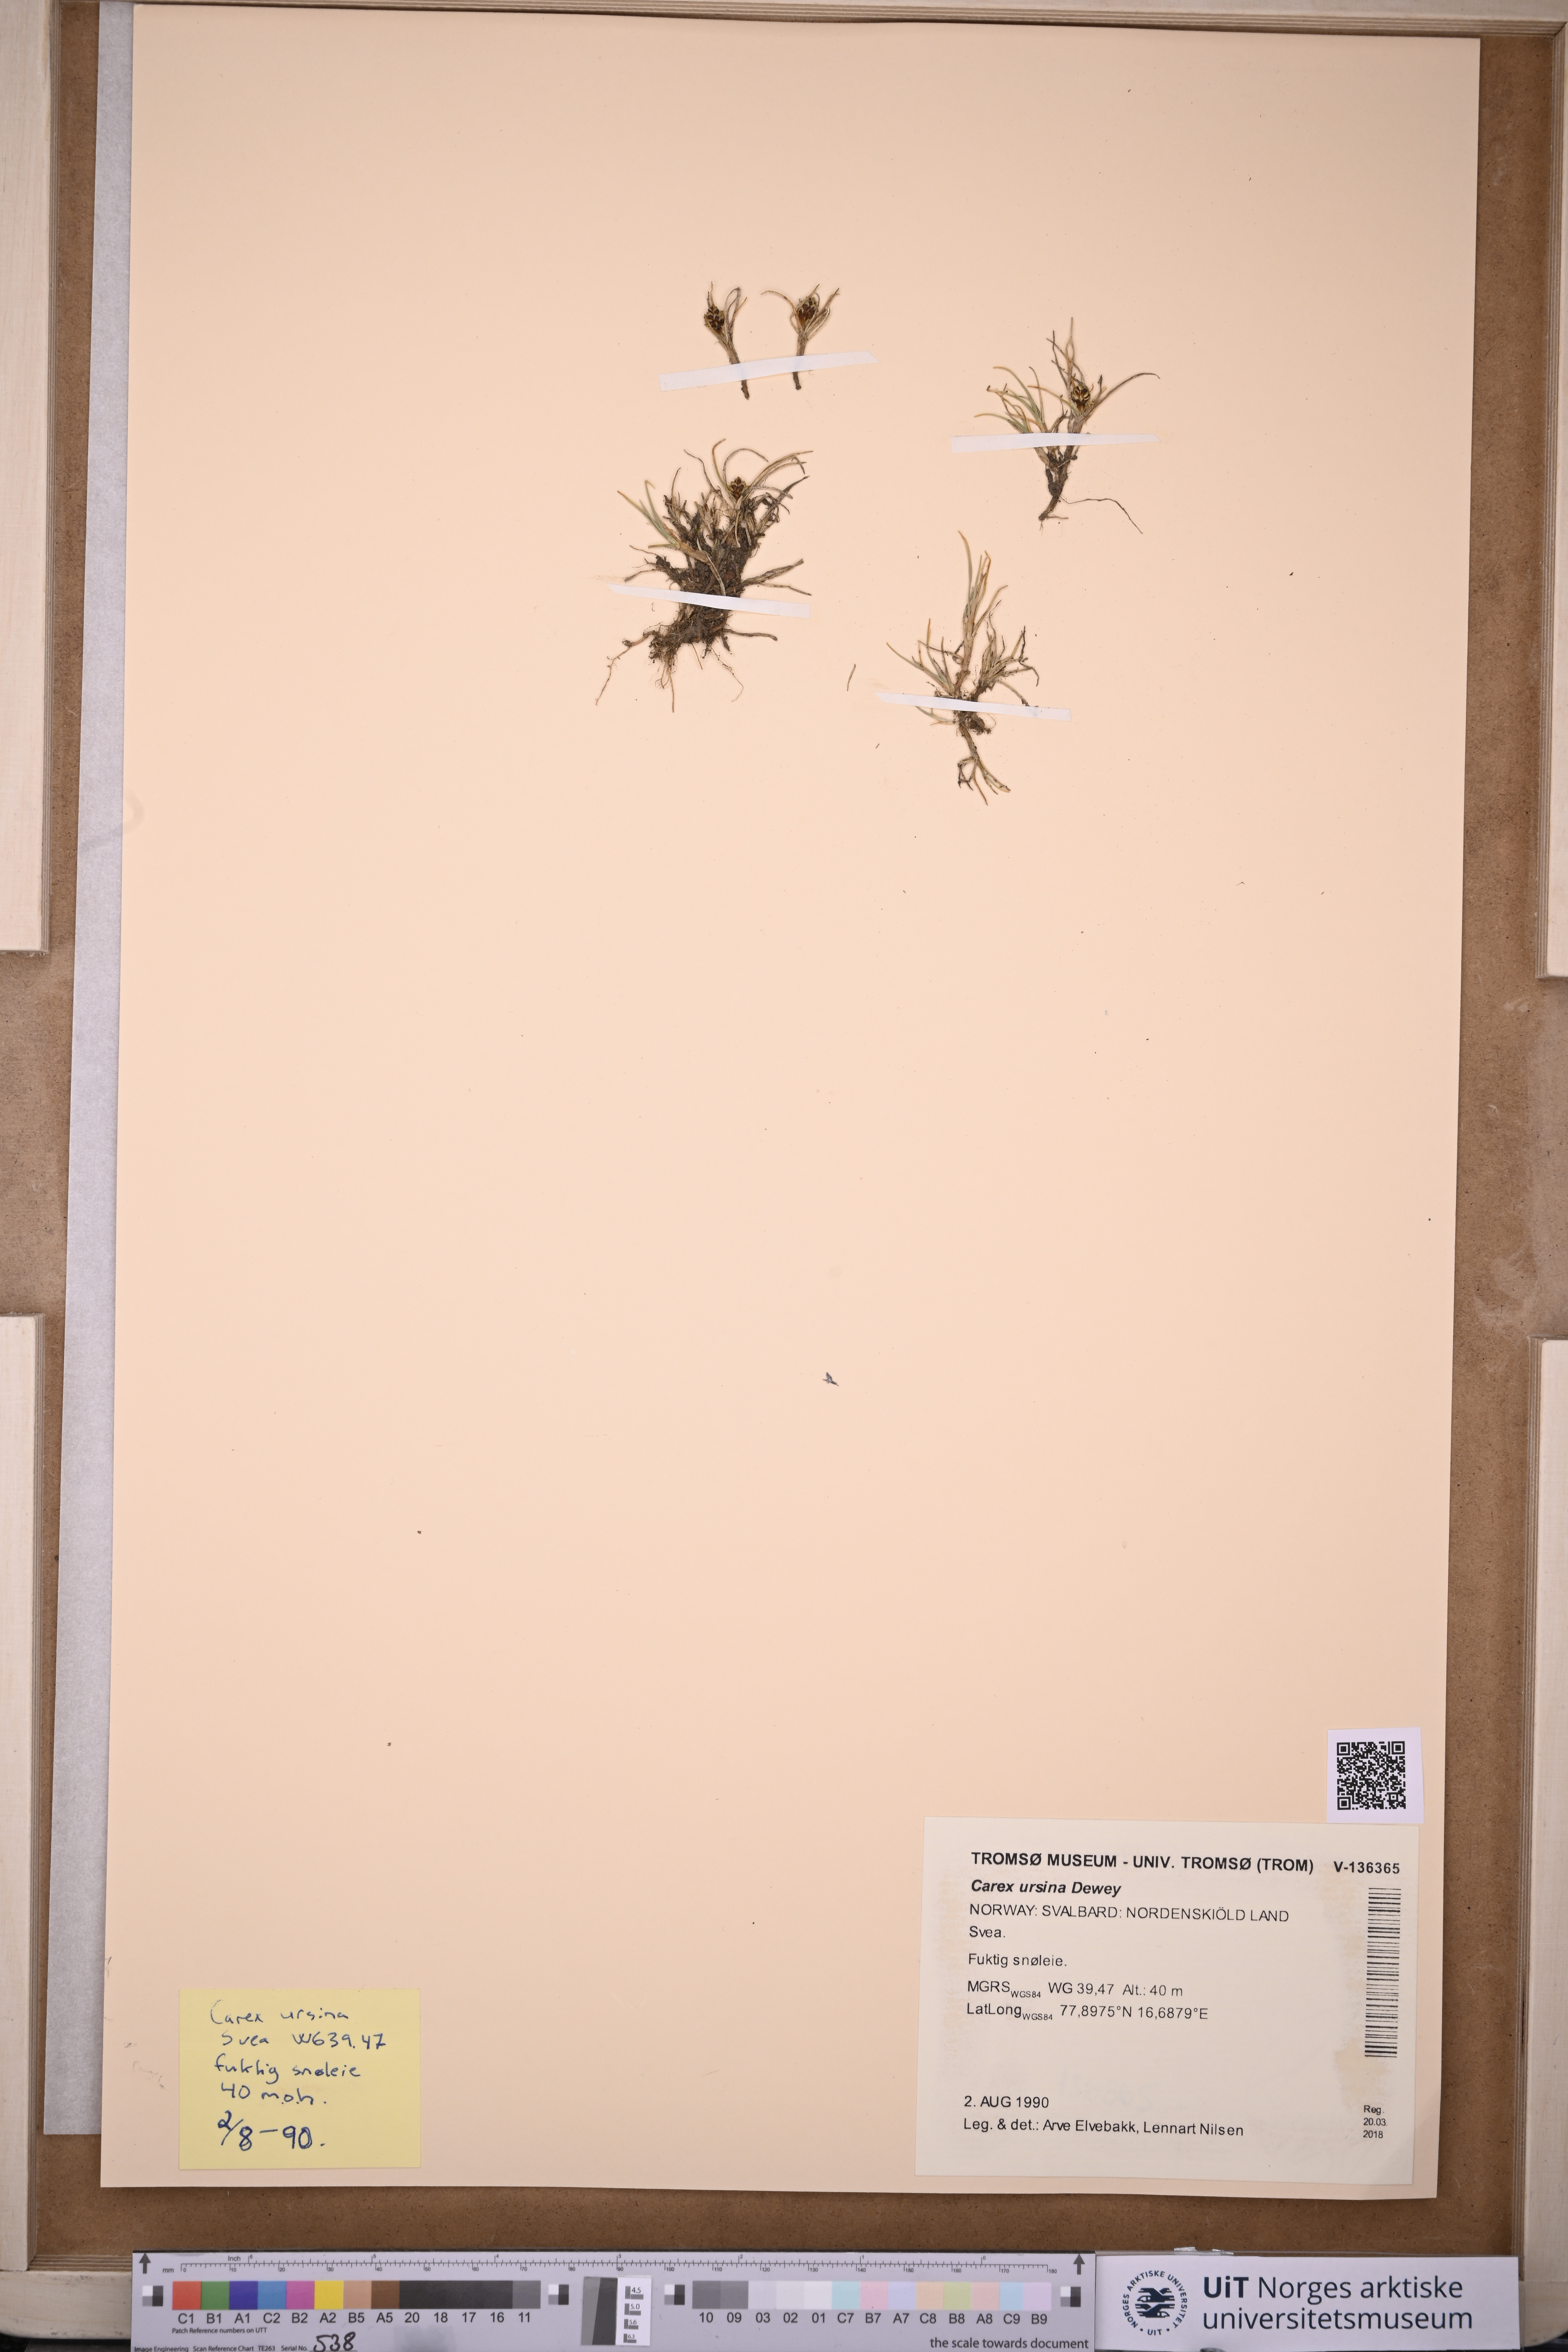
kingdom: Plantae
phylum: Tracheophyta
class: Liliopsida
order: Poales
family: Cyperaceae
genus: Carex
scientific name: Carex ursina
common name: Bear sedge
